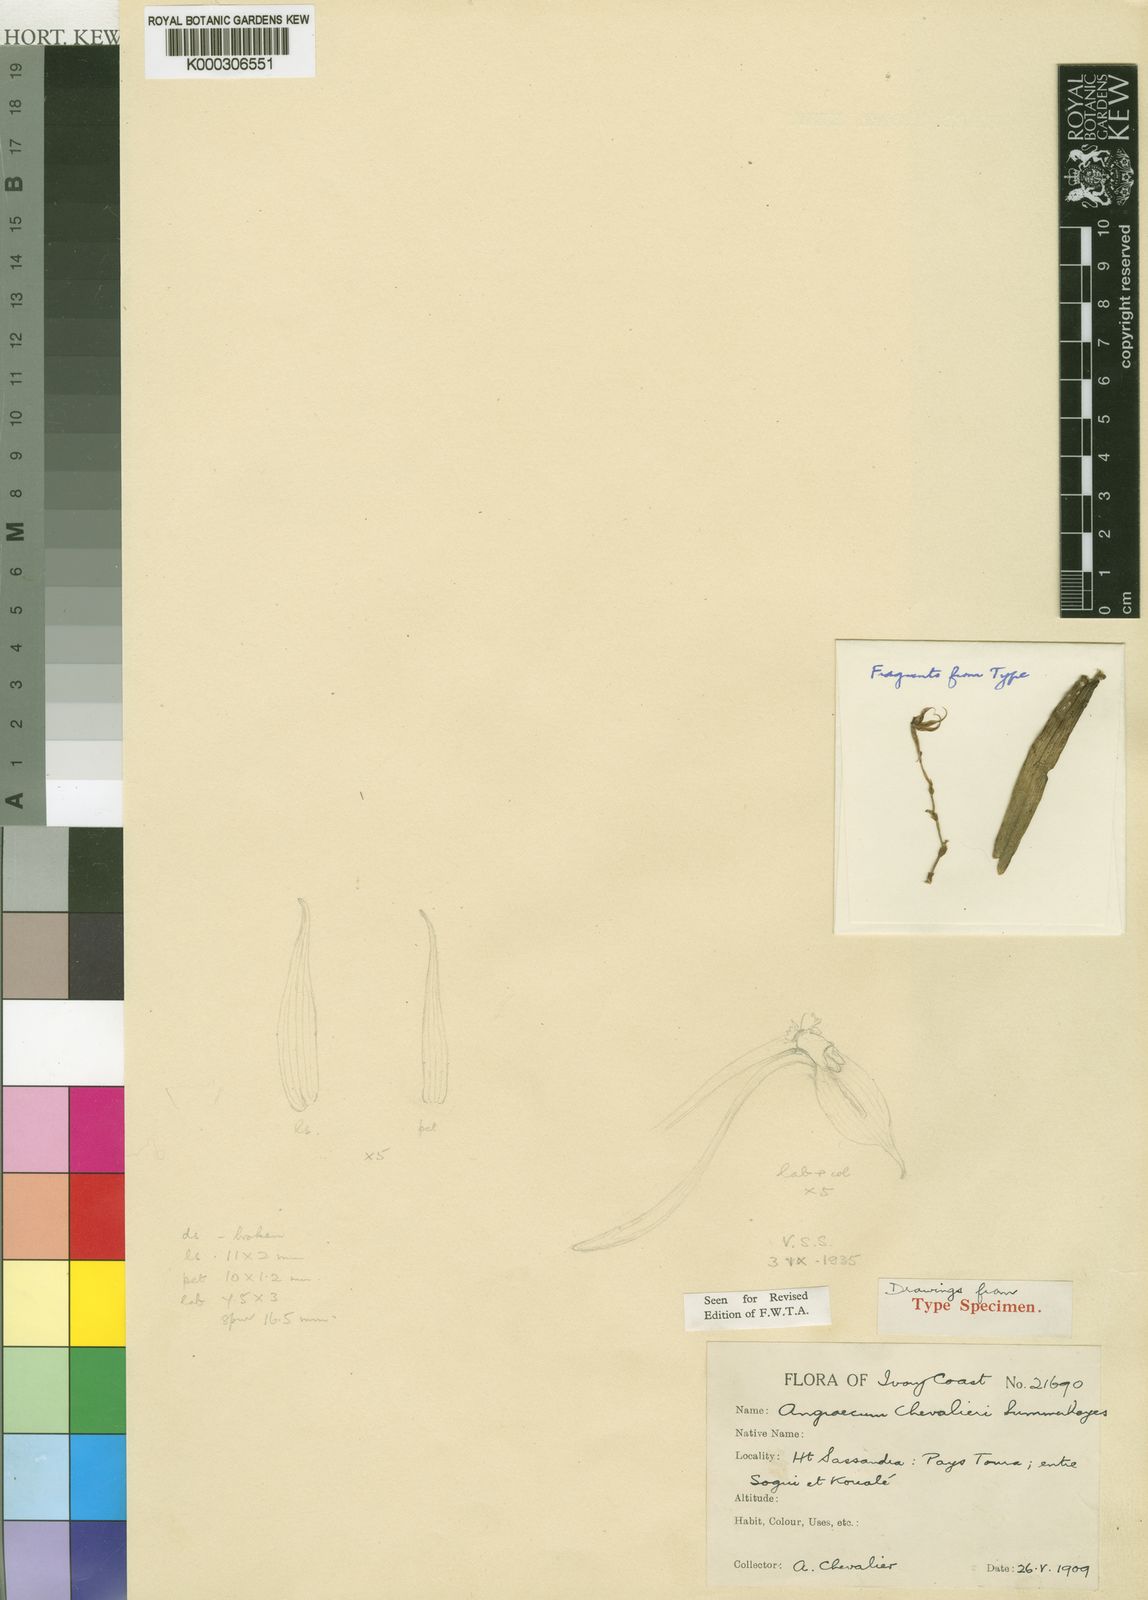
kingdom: Plantae
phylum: Tracheophyta
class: Liliopsida
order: Asparagales
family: Orchidaceae
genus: Angraecum
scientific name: Angraecum moandense
